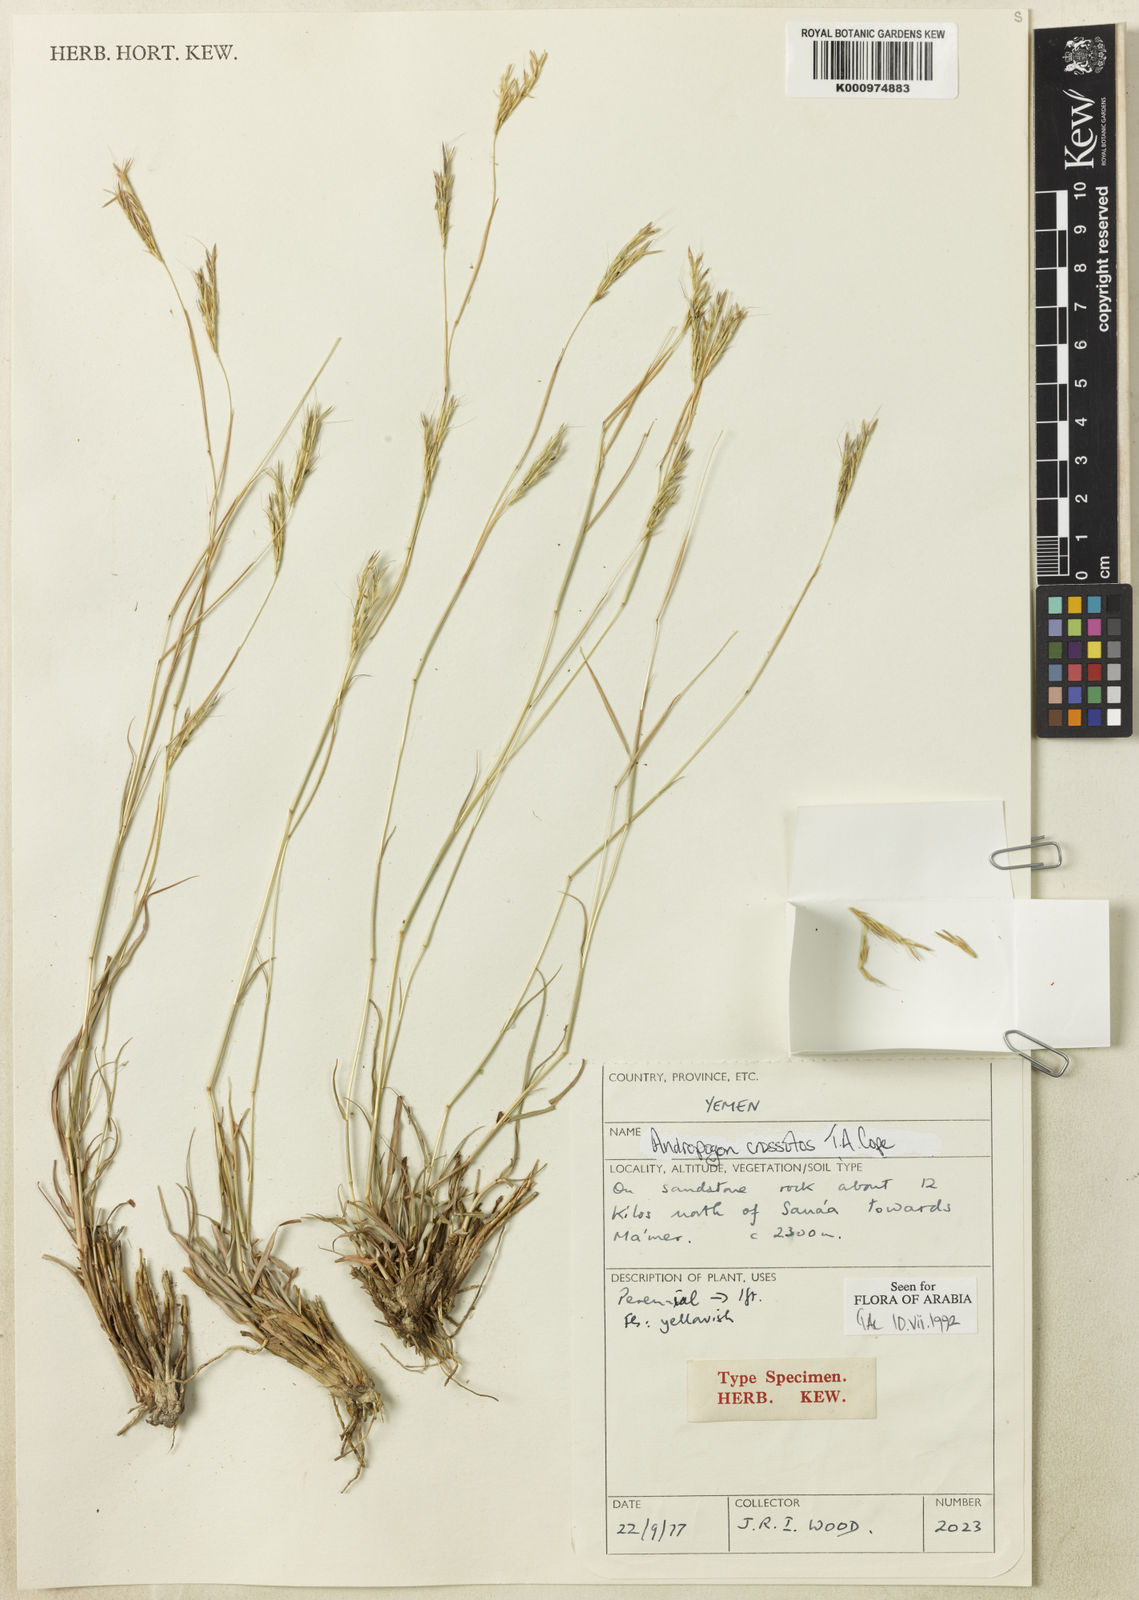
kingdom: Plantae
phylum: Tracheophyta
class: Liliopsida
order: Poales
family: Poaceae
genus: Andropogon
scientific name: Andropogon crossotos
